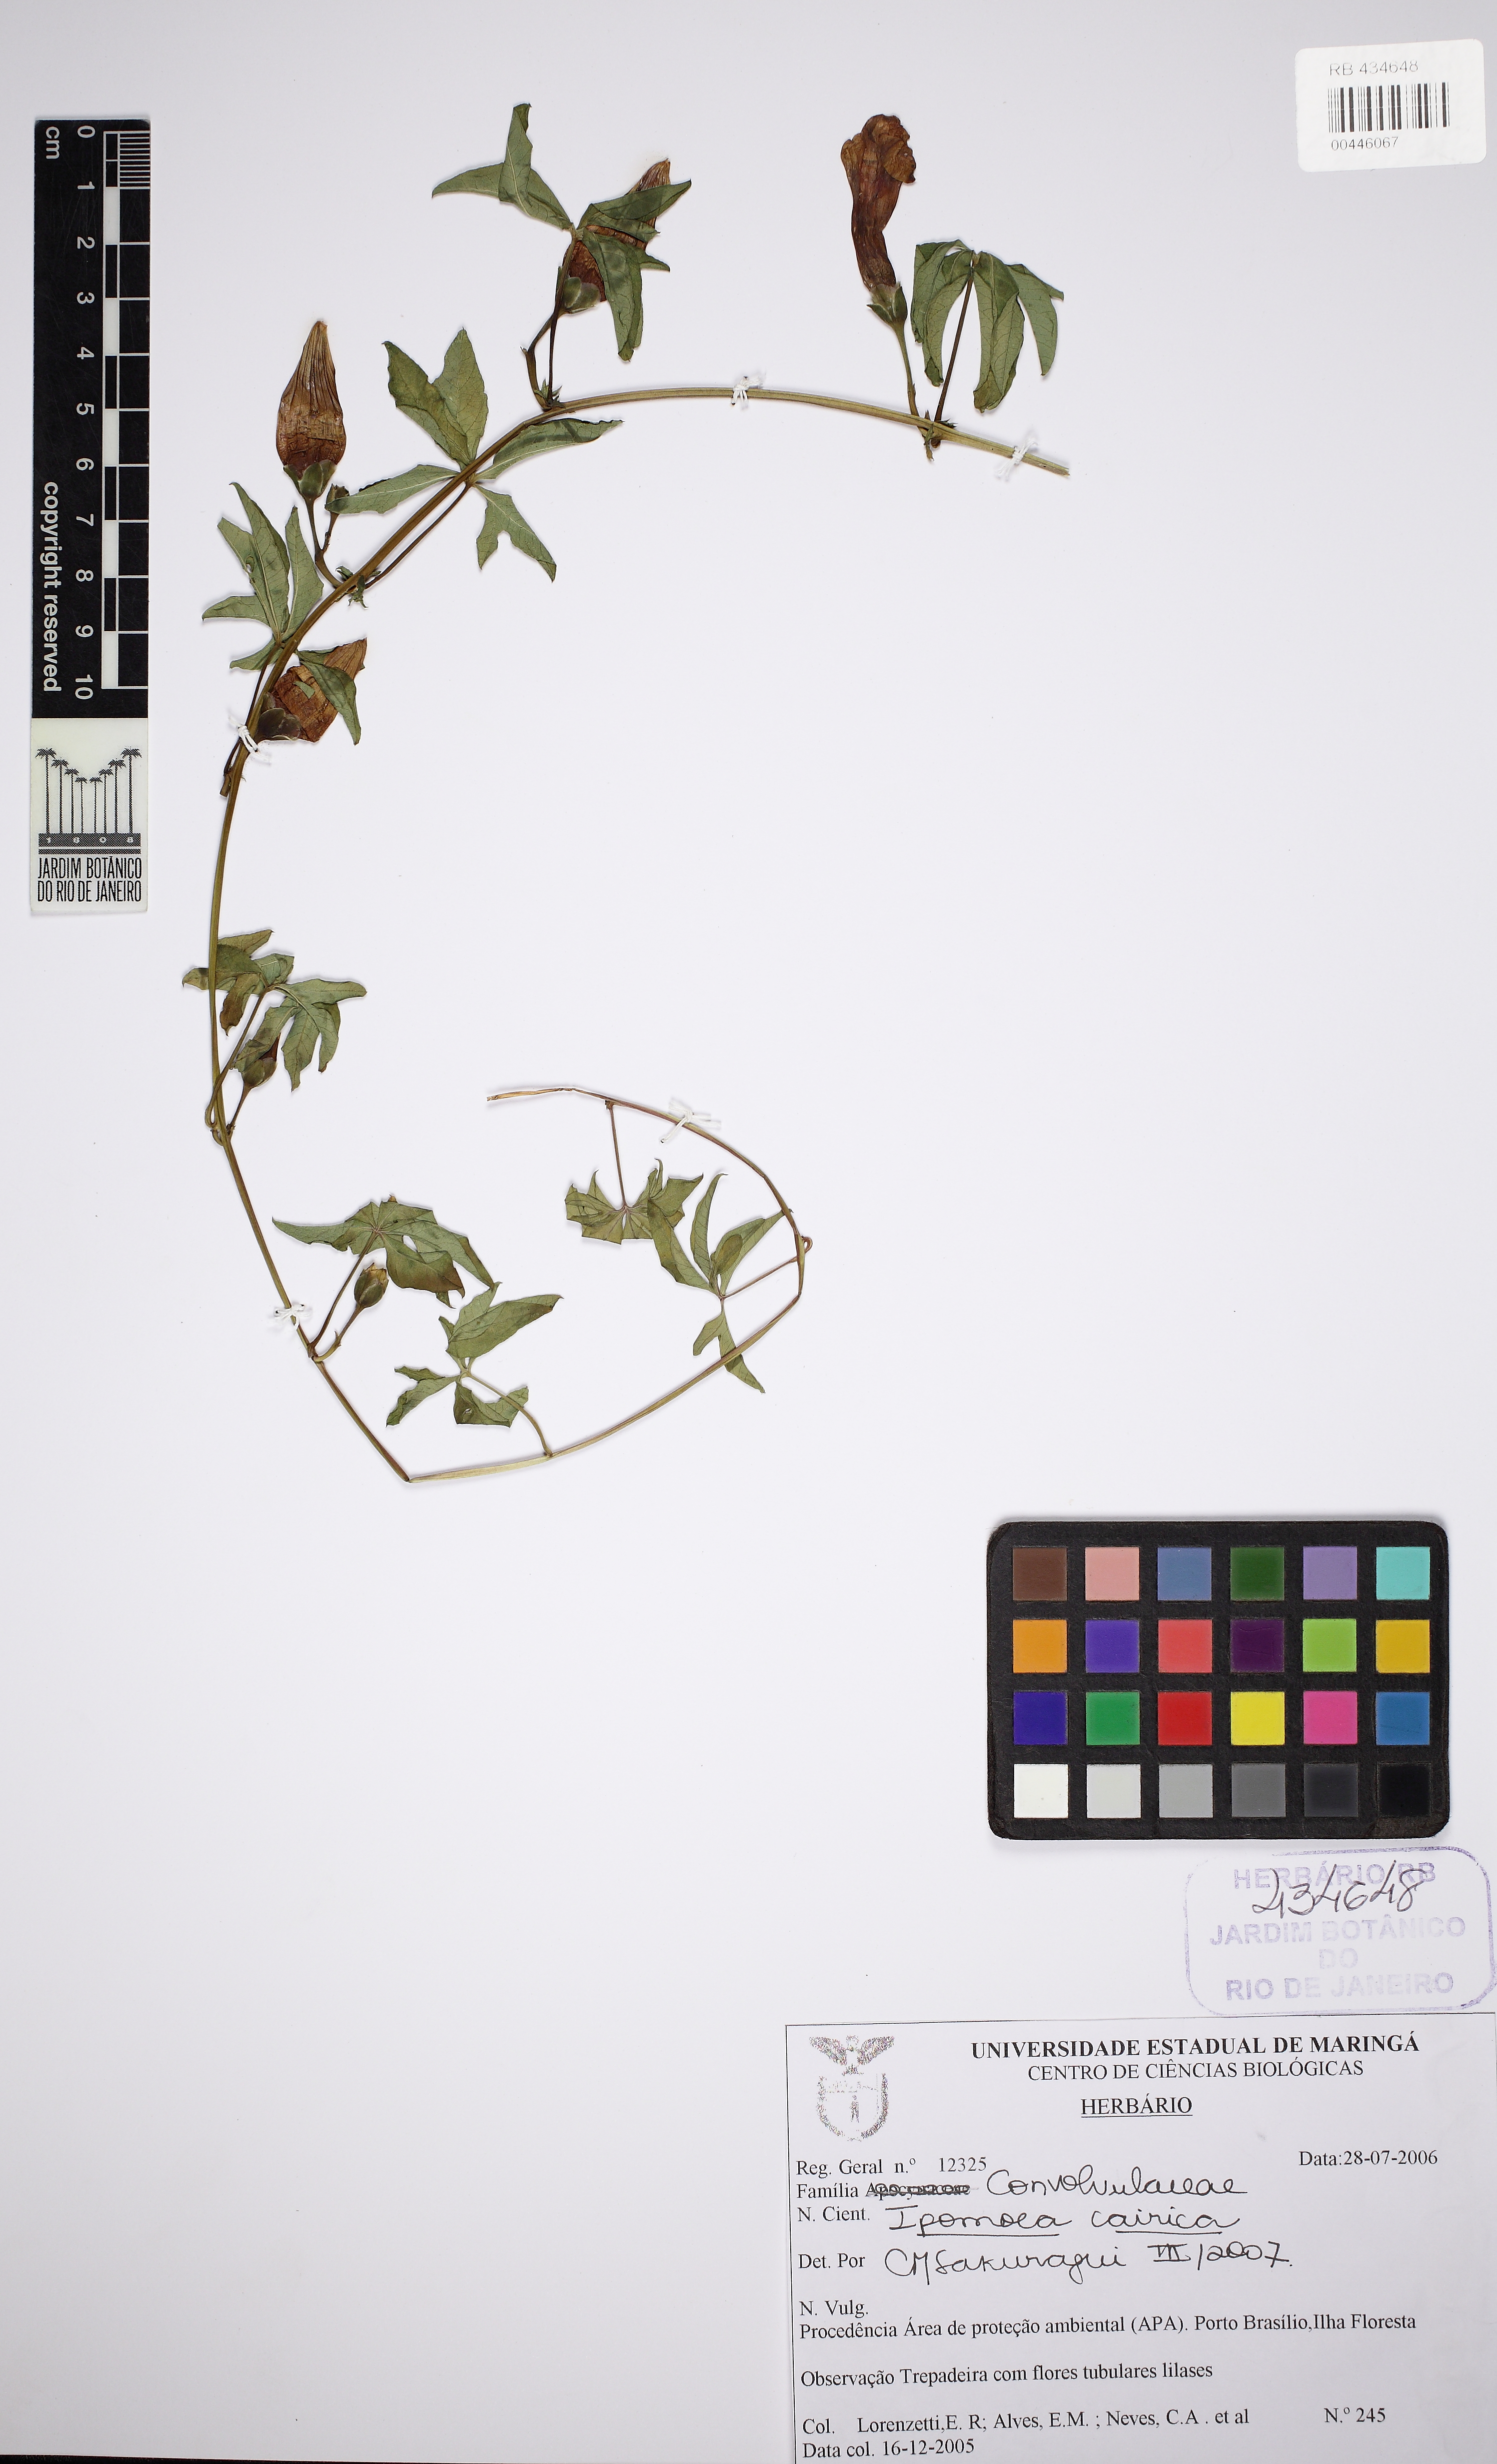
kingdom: Plantae
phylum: Tracheophyta
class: Magnoliopsida
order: Solanales
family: Convolvulaceae
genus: Ipomoea
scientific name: Ipomoea cairica
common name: Mile a minute vine
